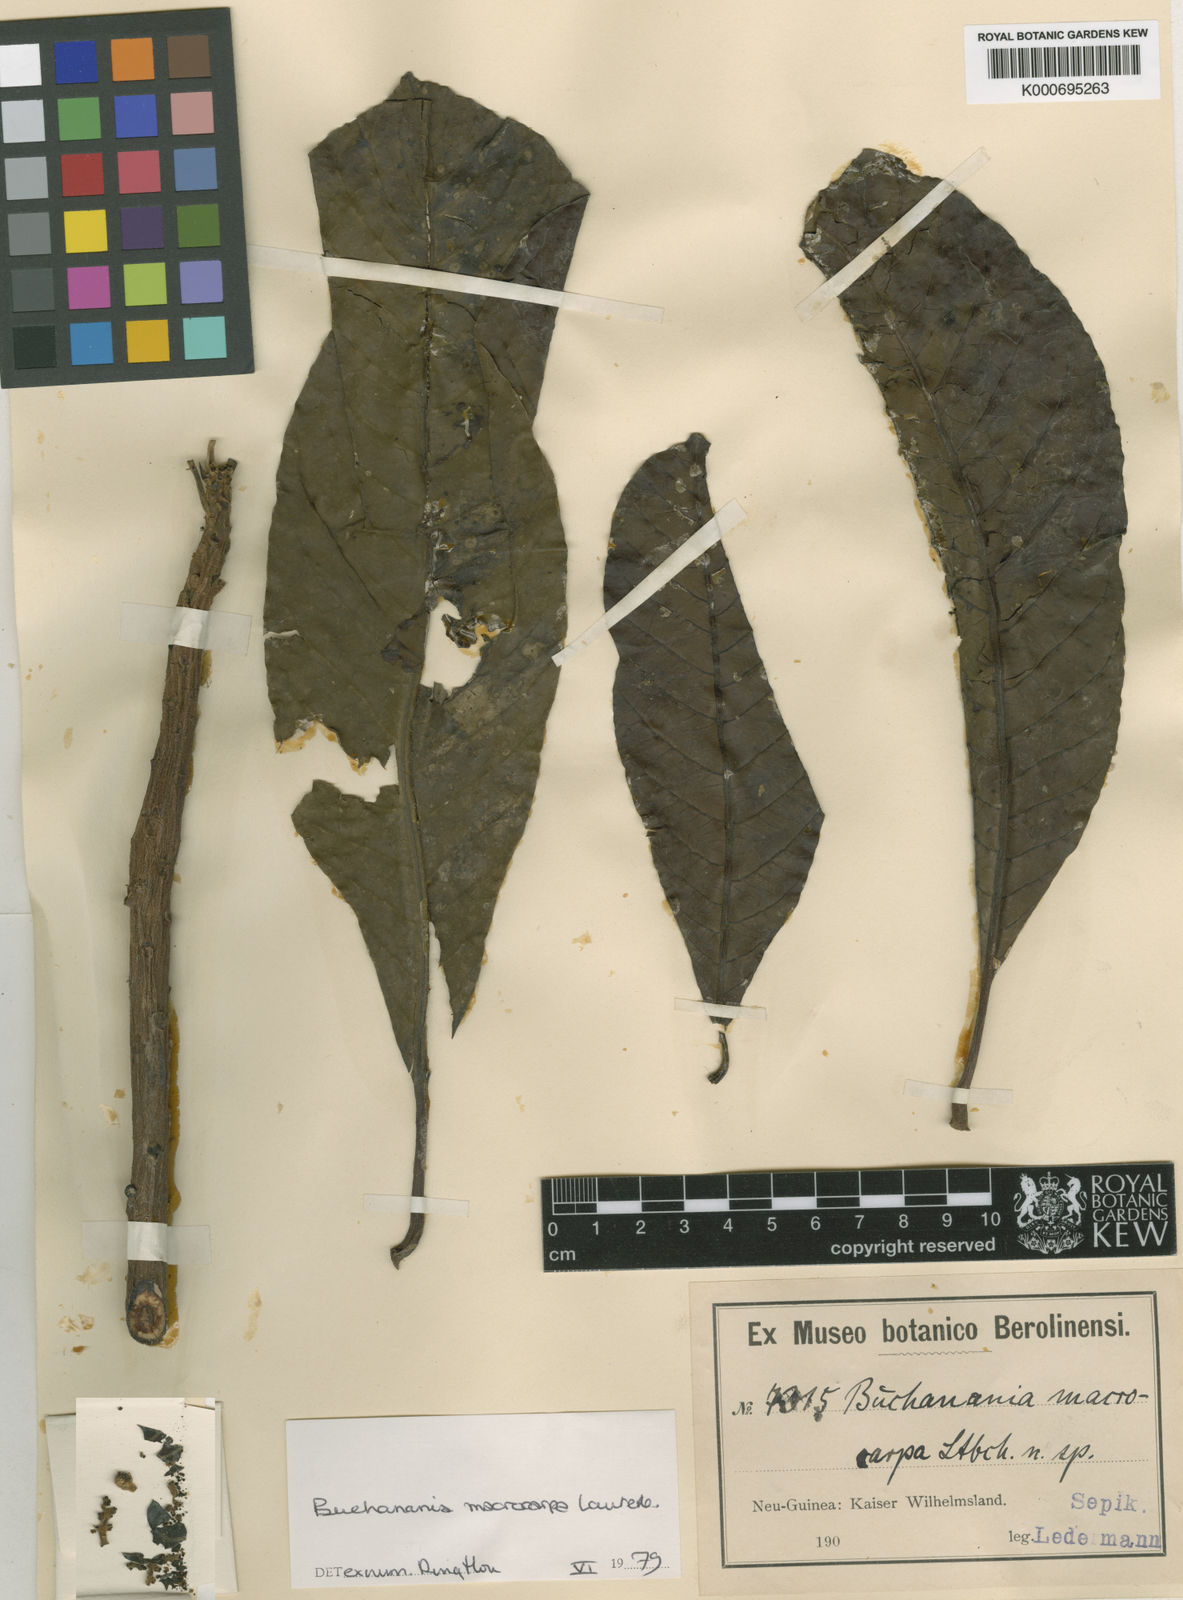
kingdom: Plantae
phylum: Tracheophyta
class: Magnoliopsida
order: Sapindales
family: Anacardiaceae
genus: Buchanania
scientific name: Buchanania macrocarpa
